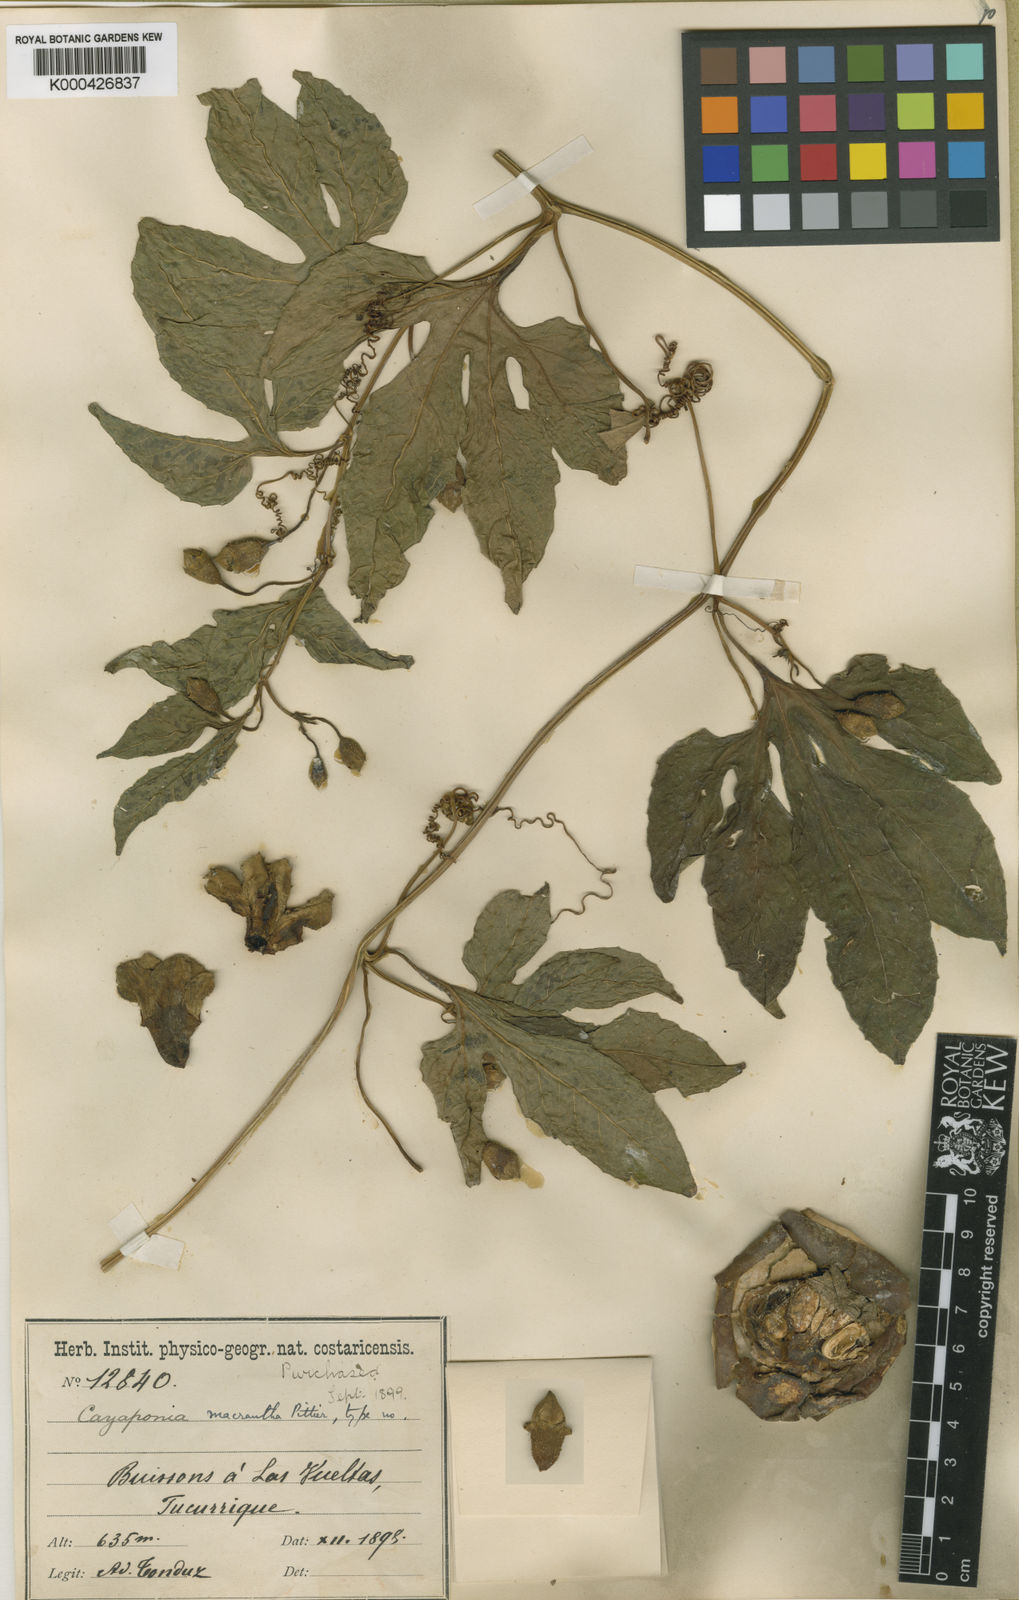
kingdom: Plantae
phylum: Tracheophyta
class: Magnoliopsida
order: Cucurbitales
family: Cucurbitaceae
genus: Cionosicys
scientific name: Cionosicys macranthus
